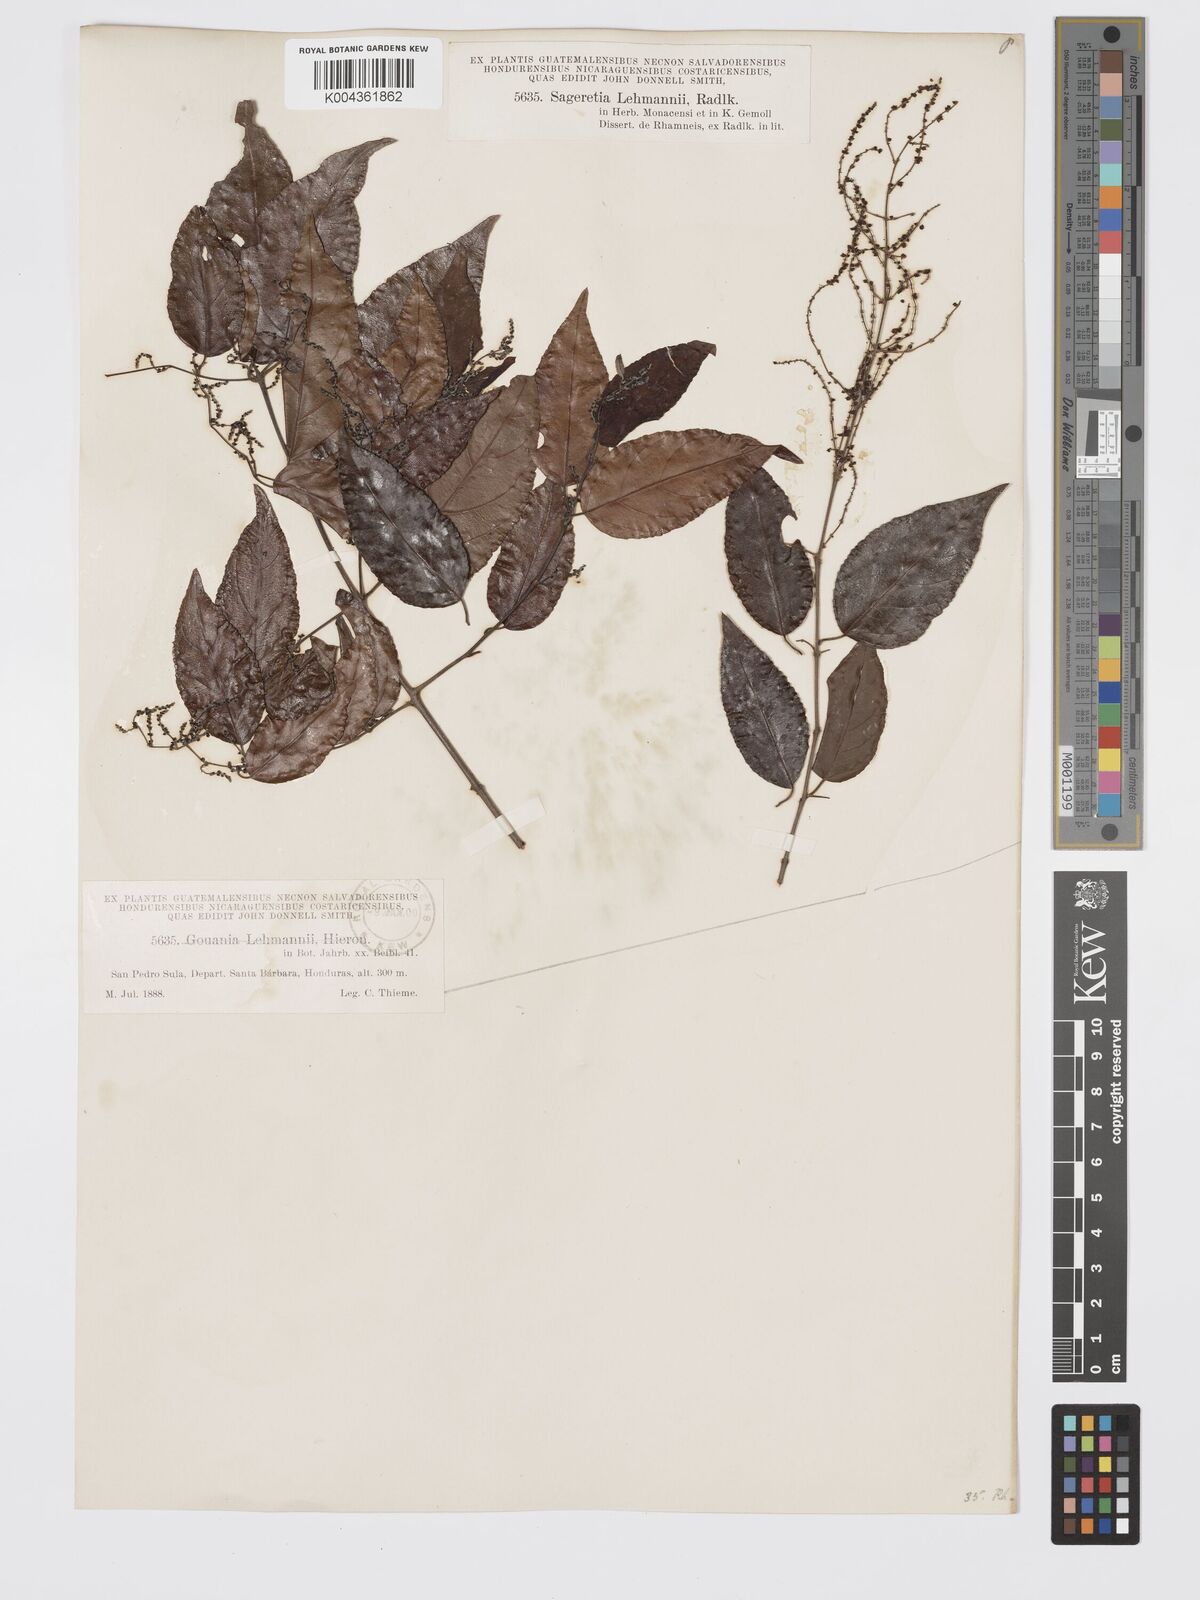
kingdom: Plantae
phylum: Tracheophyta
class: Magnoliopsida
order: Rosales
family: Rhamnaceae
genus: Sageretia
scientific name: Sageretia elegans
